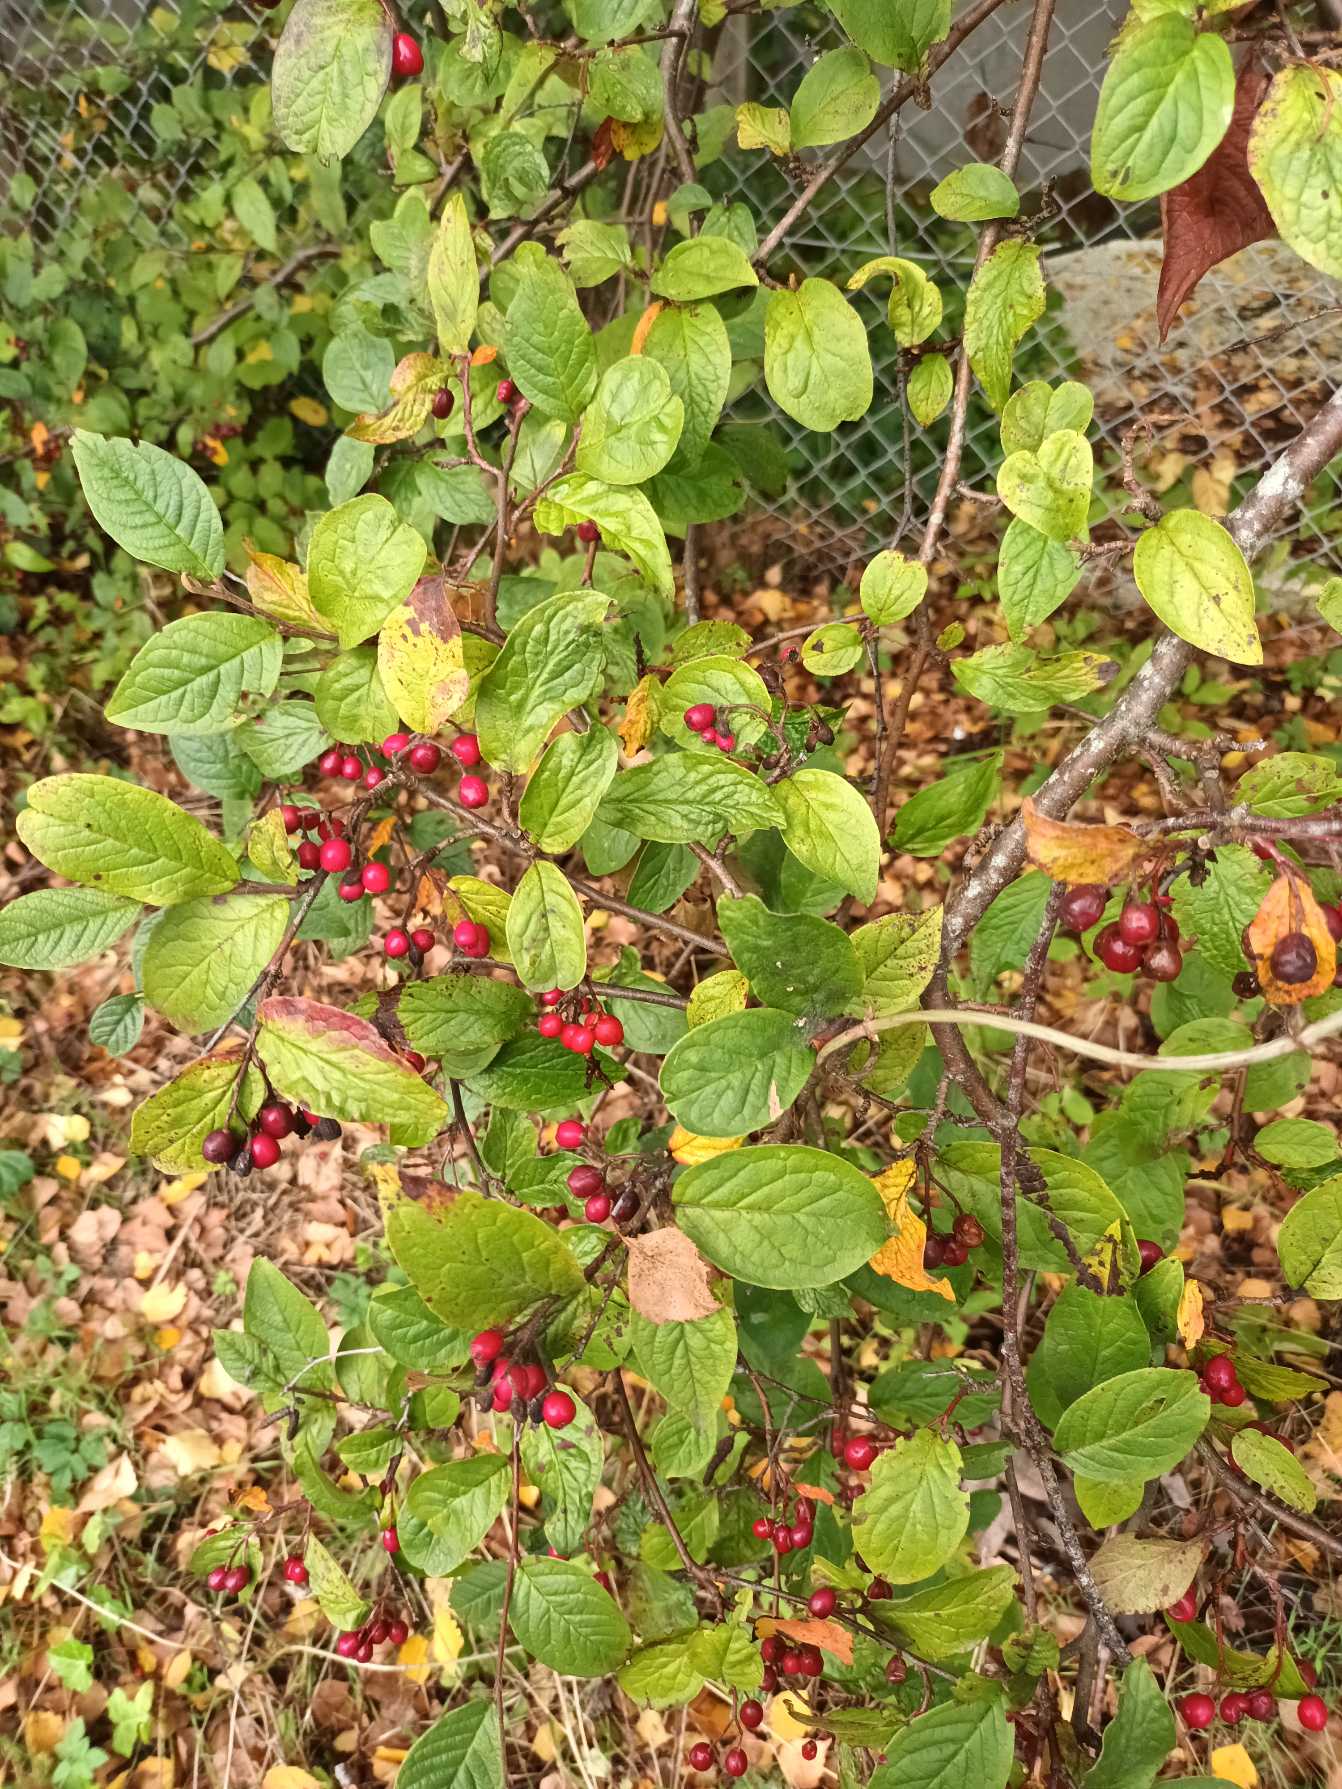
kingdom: Plantae
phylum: Tracheophyta
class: Magnoliopsida
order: Rosales
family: Rosaceae
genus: Cotoneaster
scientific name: Cotoneaster bullatus
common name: Buklet dværgmispel
